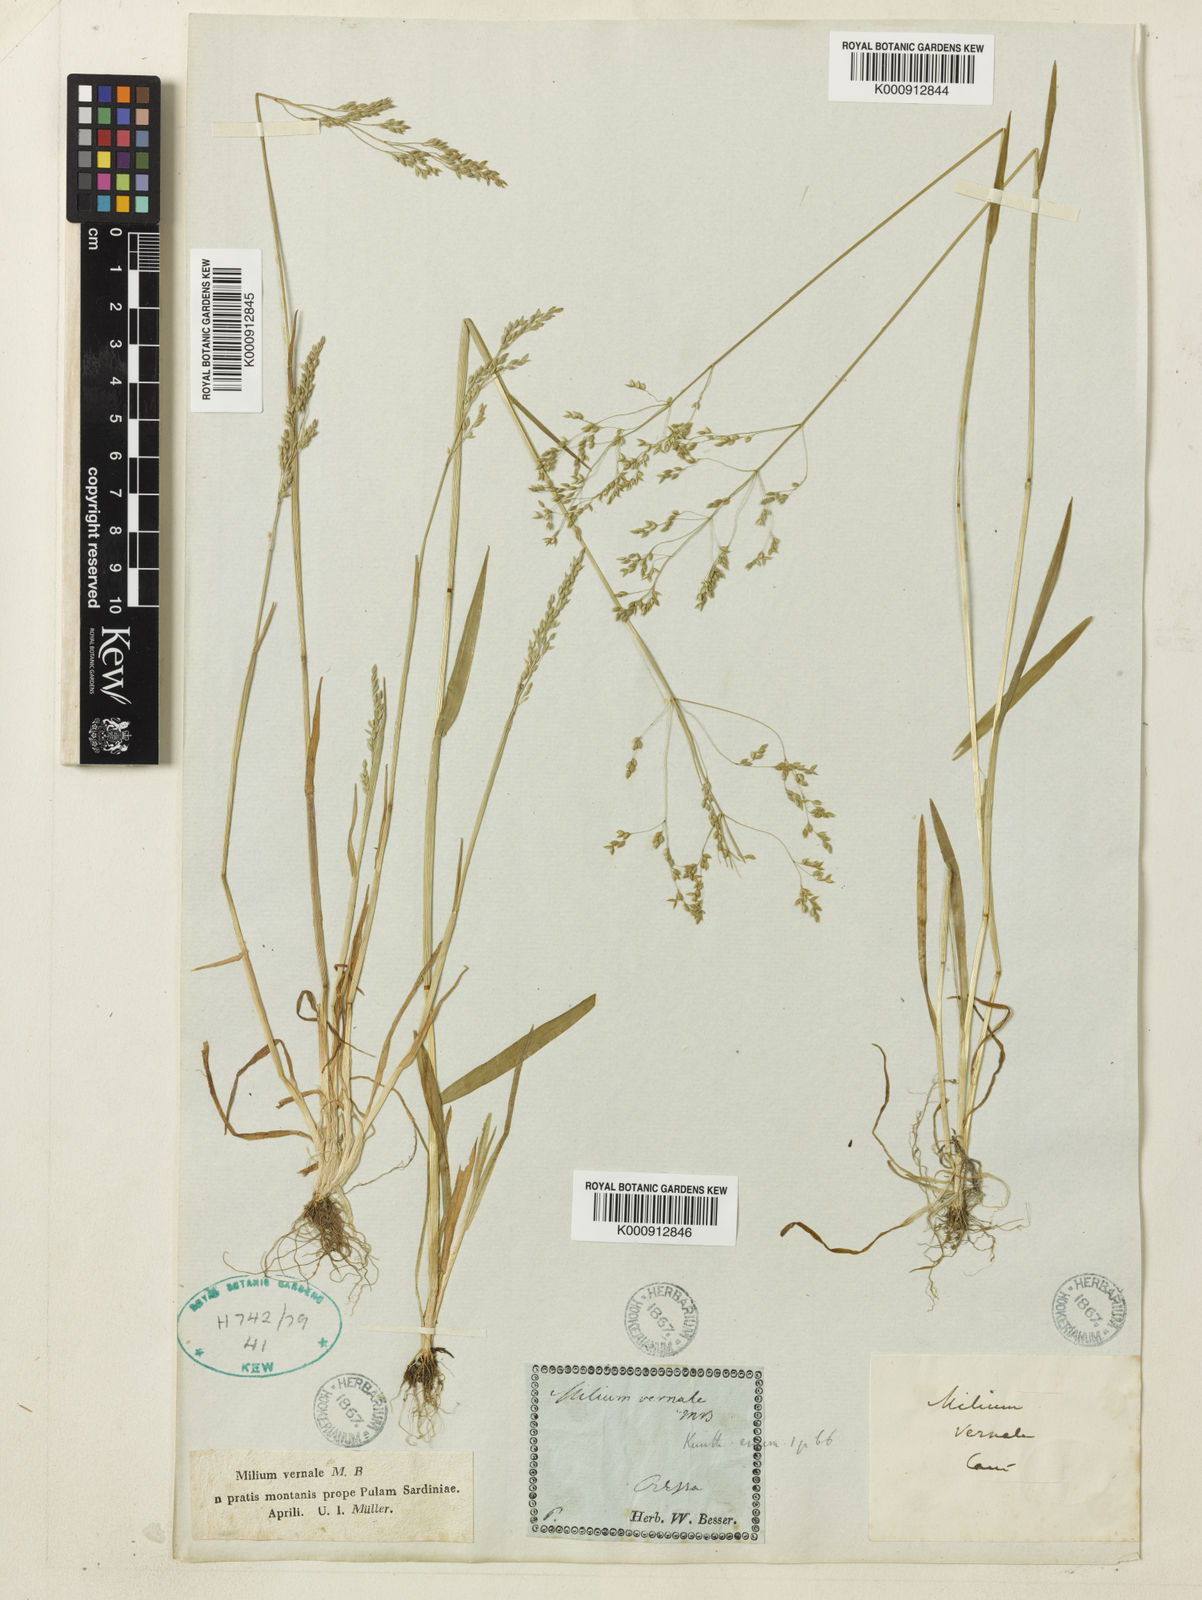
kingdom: Plantae
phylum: Tracheophyta
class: Liliopsida
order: Poales
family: Poaceae
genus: Milium
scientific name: Milium vernale
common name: Early millet
